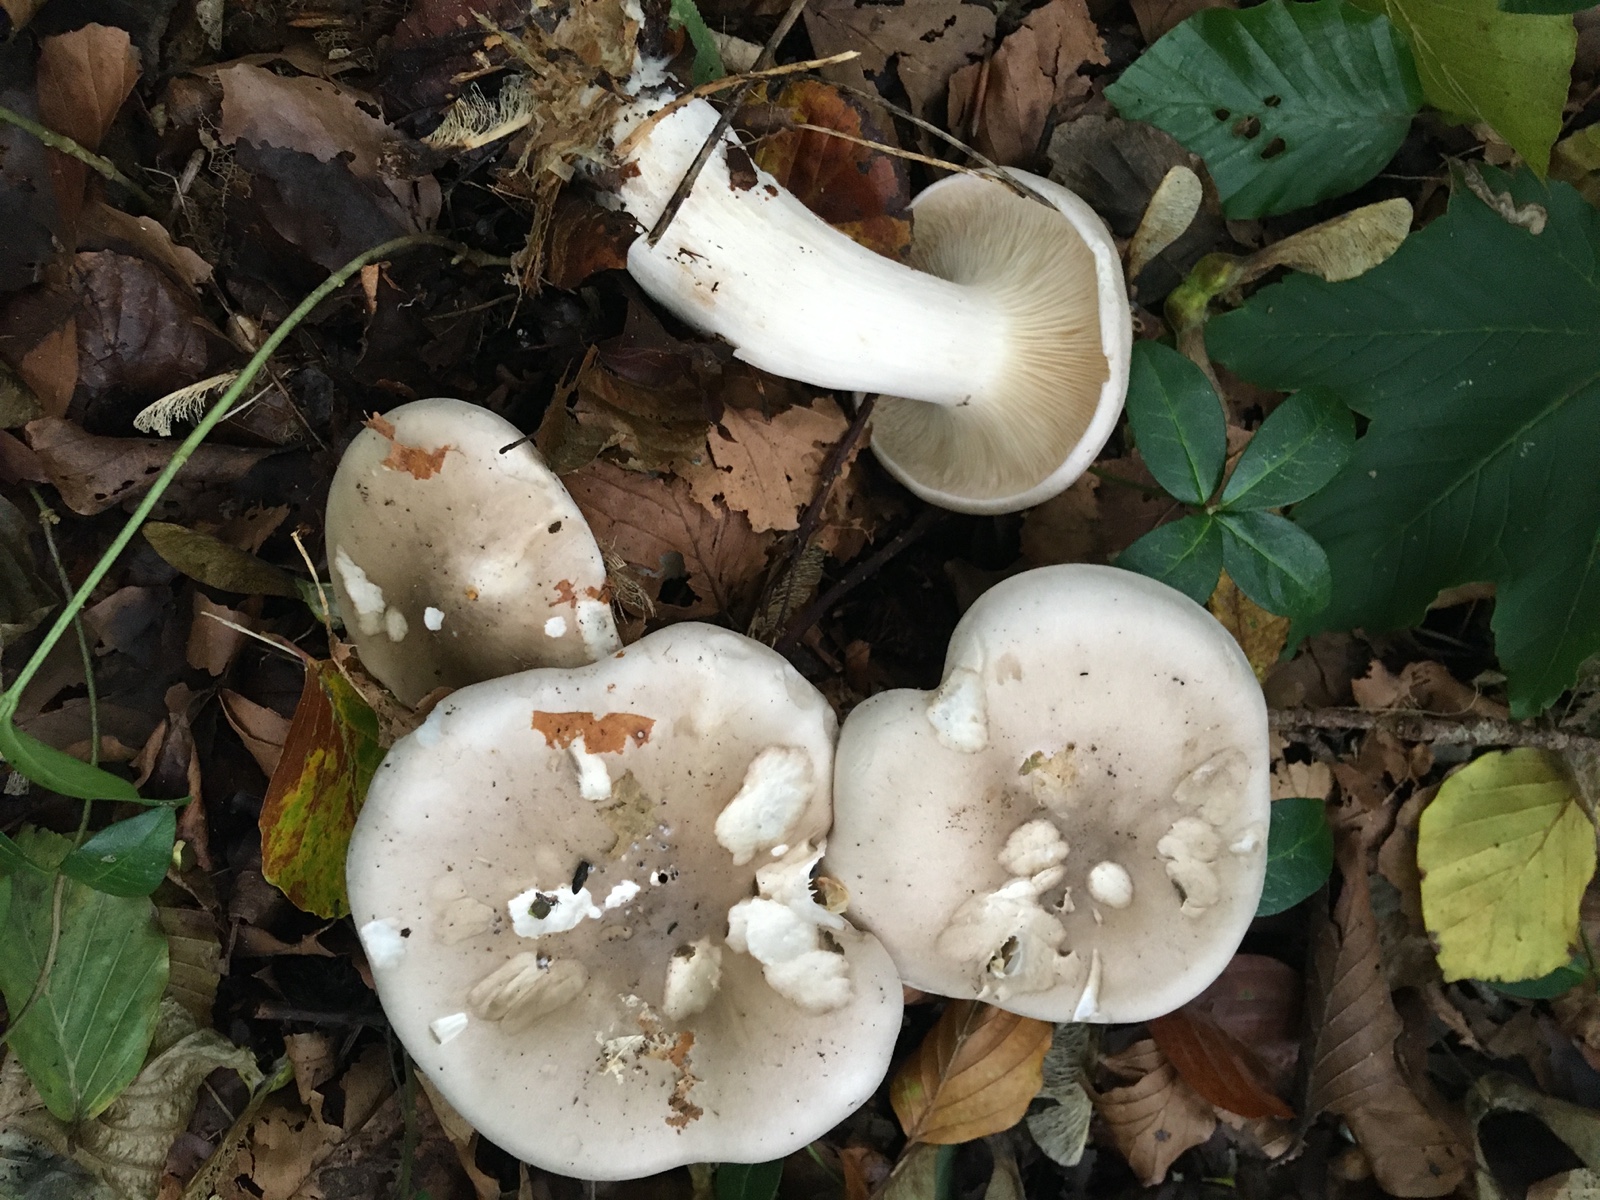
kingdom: Fungi
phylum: Basidiomycota
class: Agaricomycetes
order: Agaricales
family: Tricholomataceae
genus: Clitocybe
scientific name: Clitocybe nebularis
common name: tåge-tragthat
